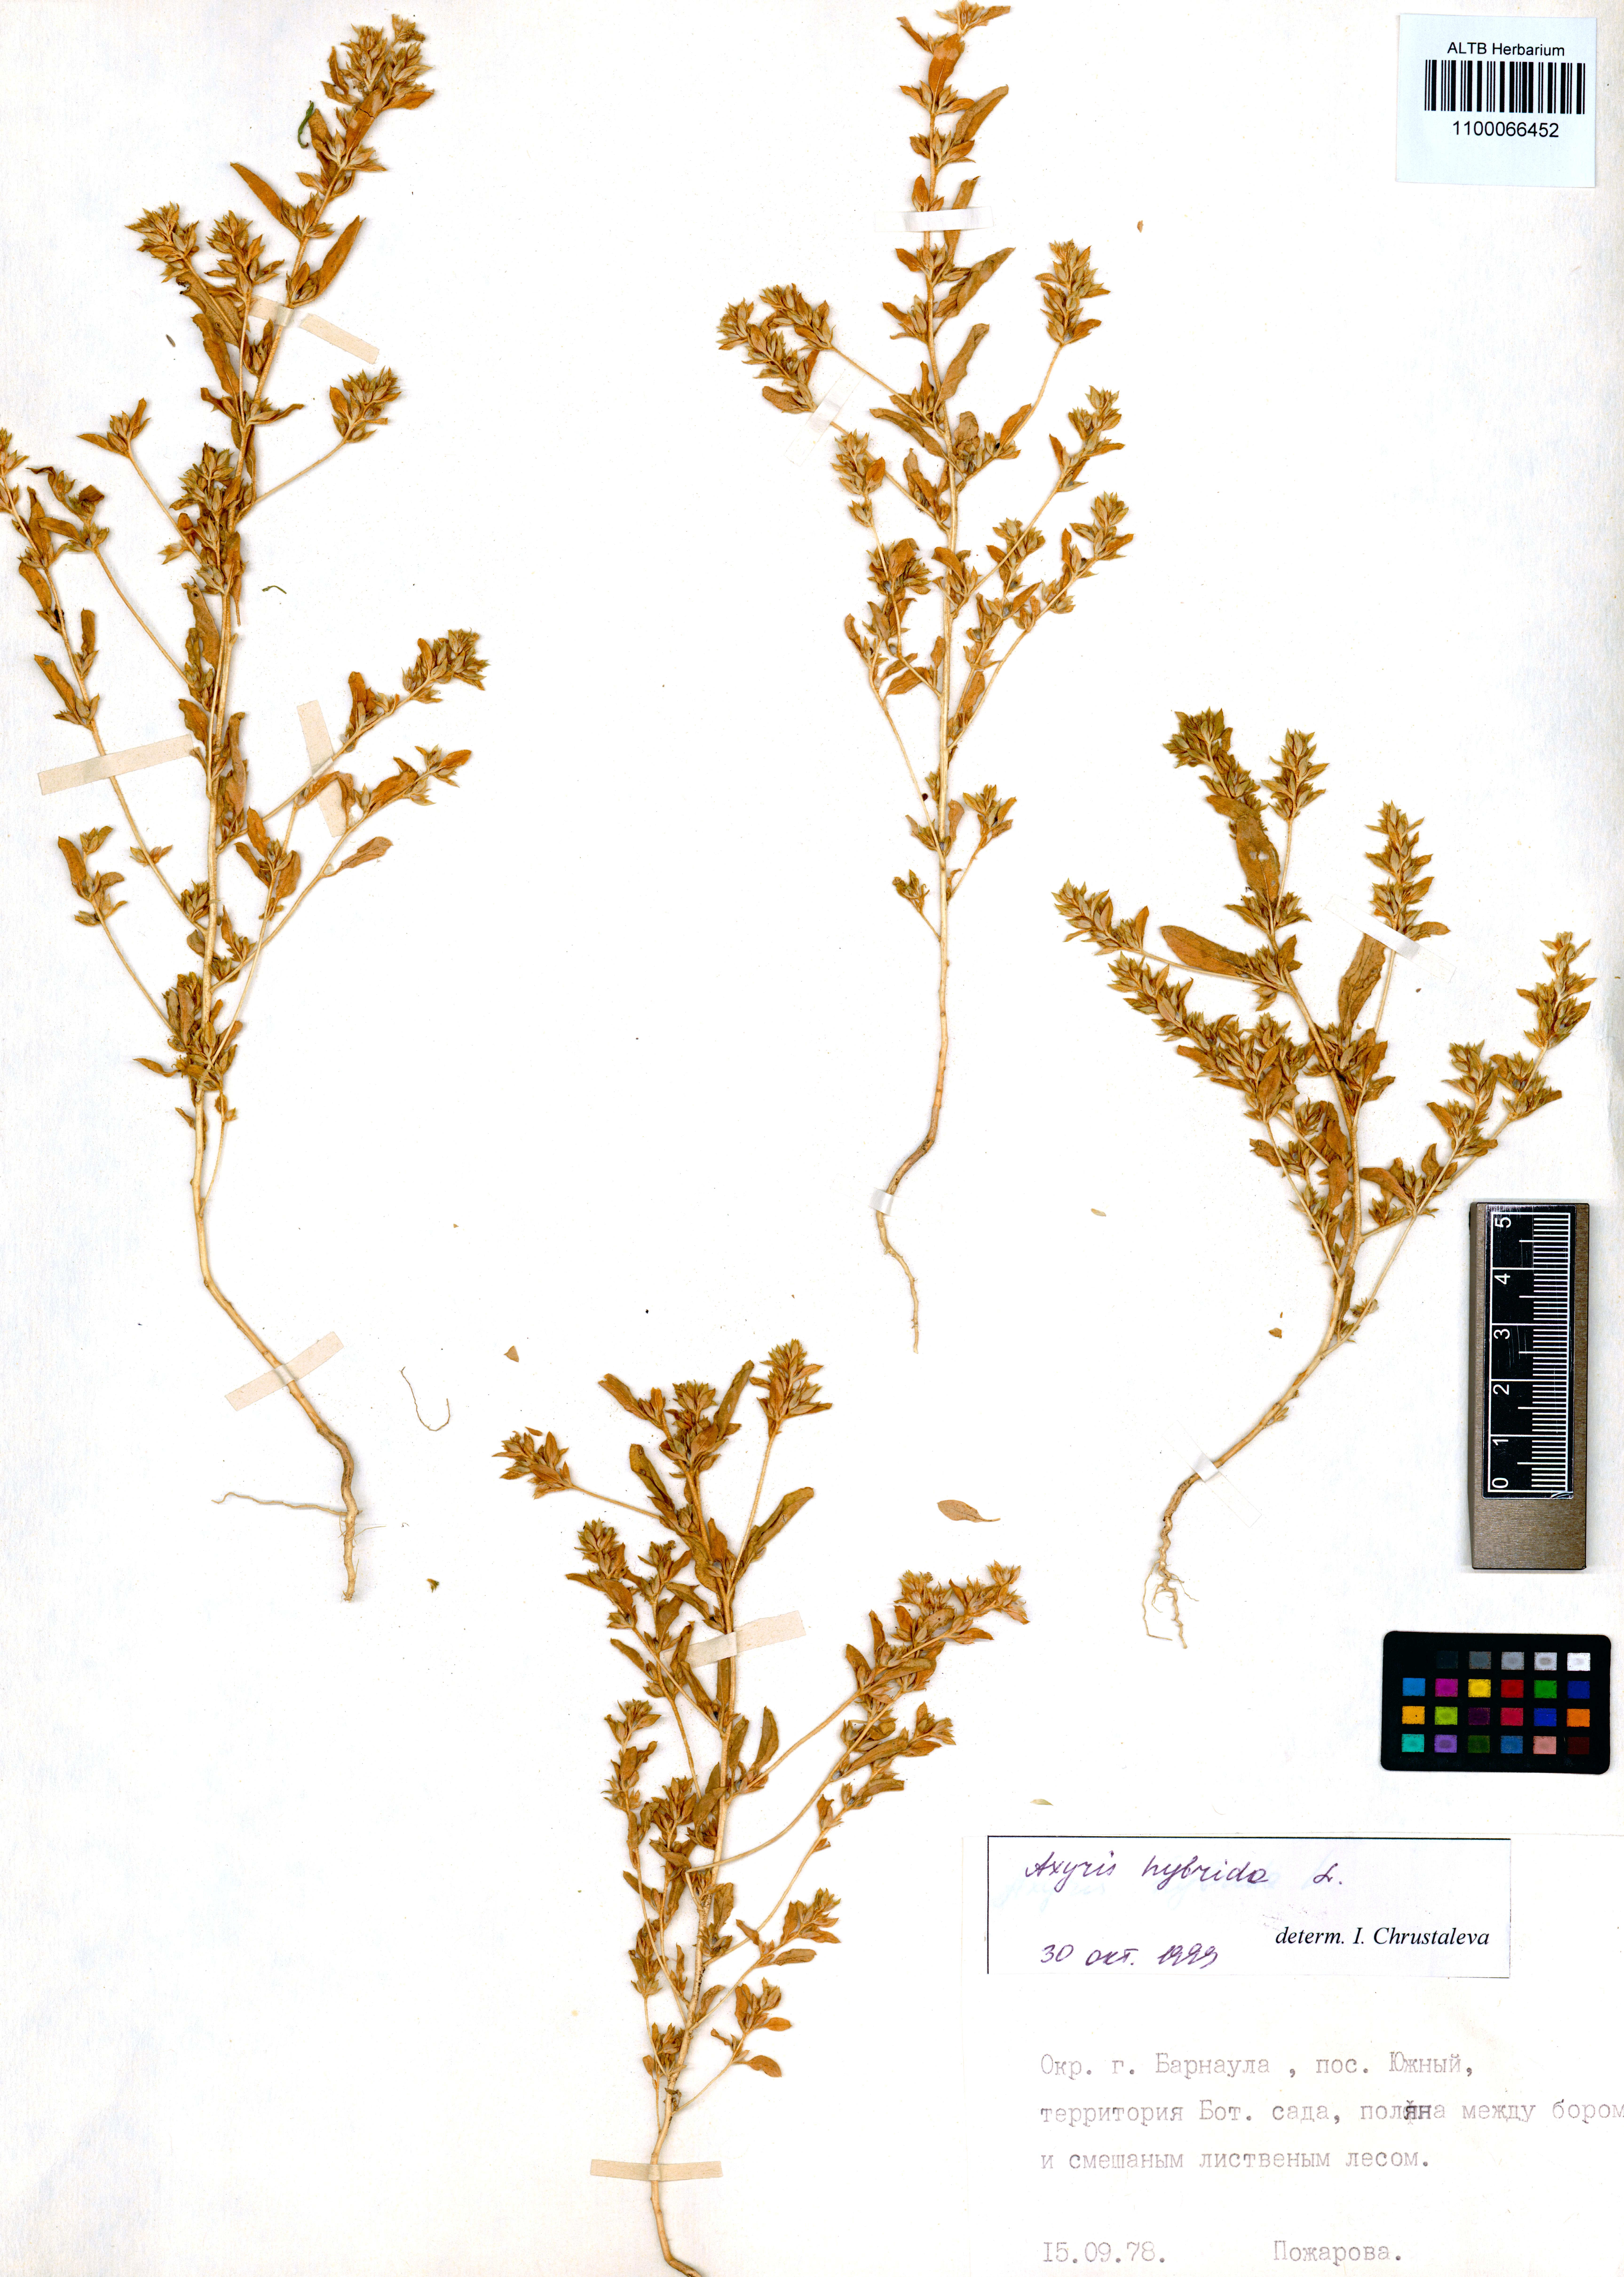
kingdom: Plantae
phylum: Tracheophyta
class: Magnoliopsida
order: Caryophyllales
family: Amaranthaceae
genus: Axyris
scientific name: Axyris hybrida
